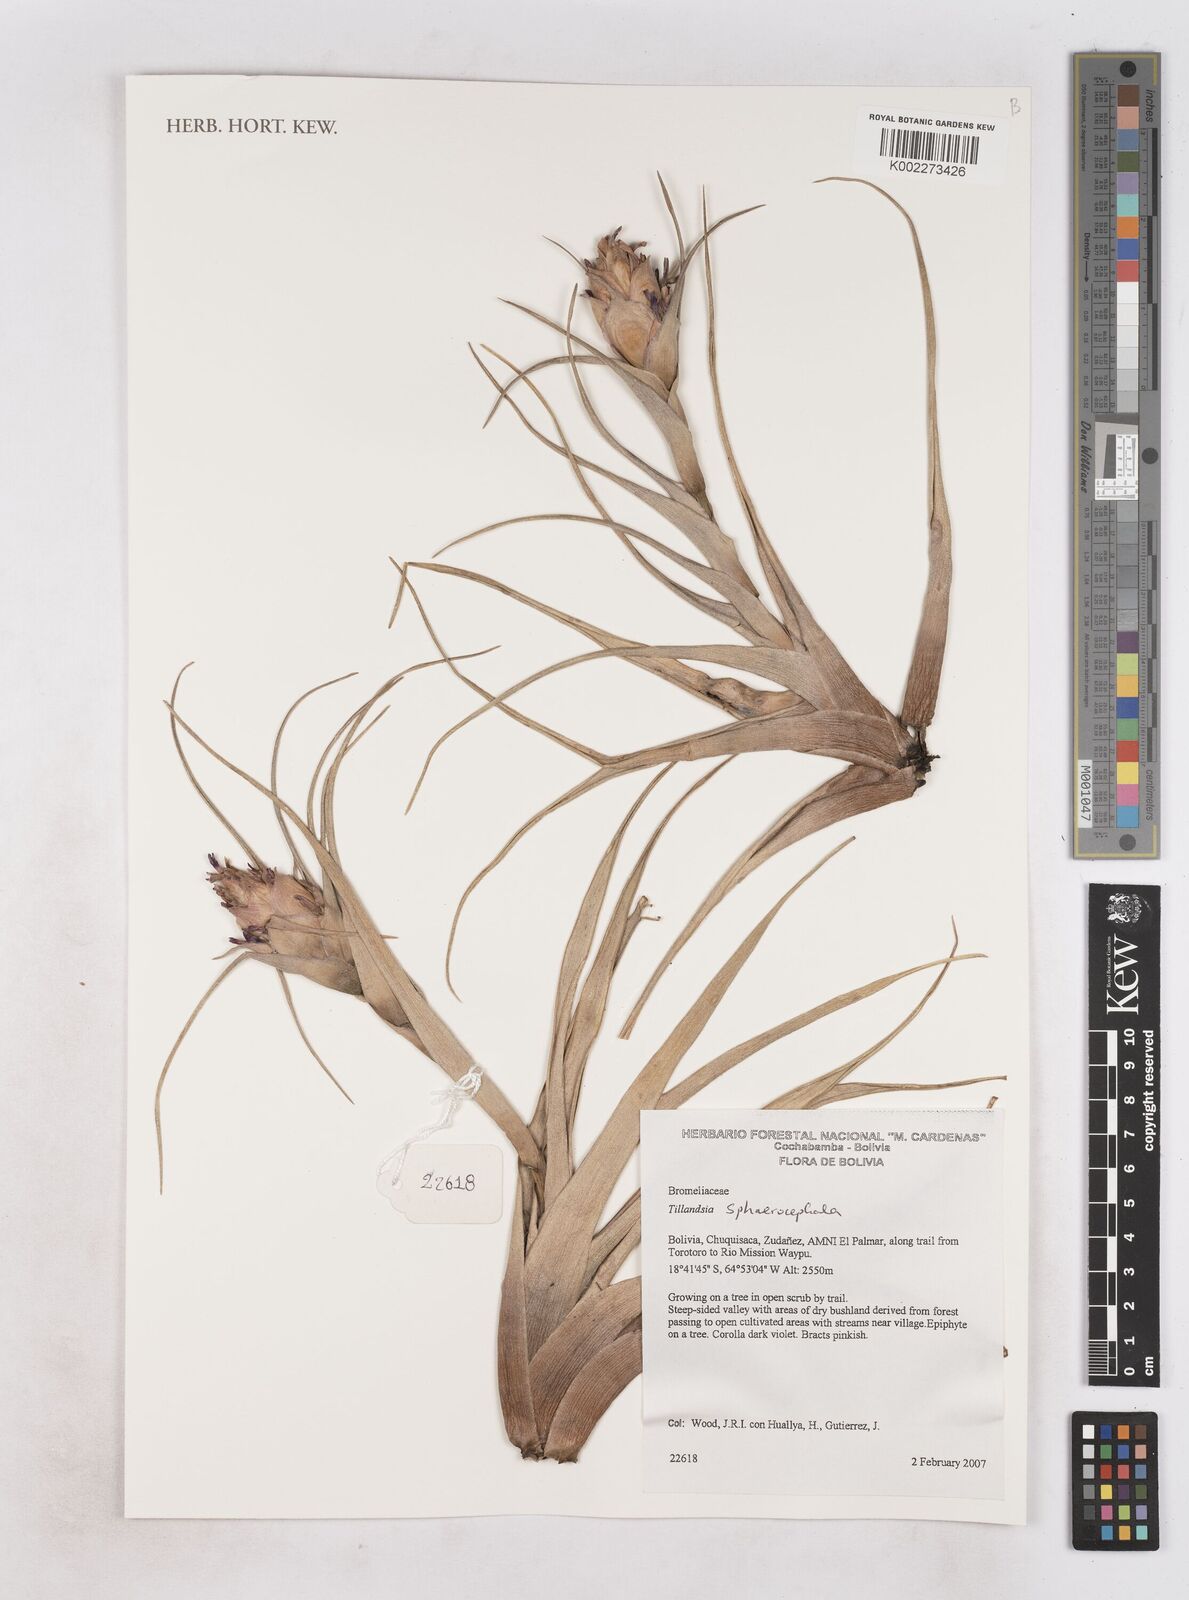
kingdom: Plantae
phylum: Tracheophyta
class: Liliopsida
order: Poales
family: Bromeliaceae
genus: Tillandsia
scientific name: Tillandsia sphaerocephala
